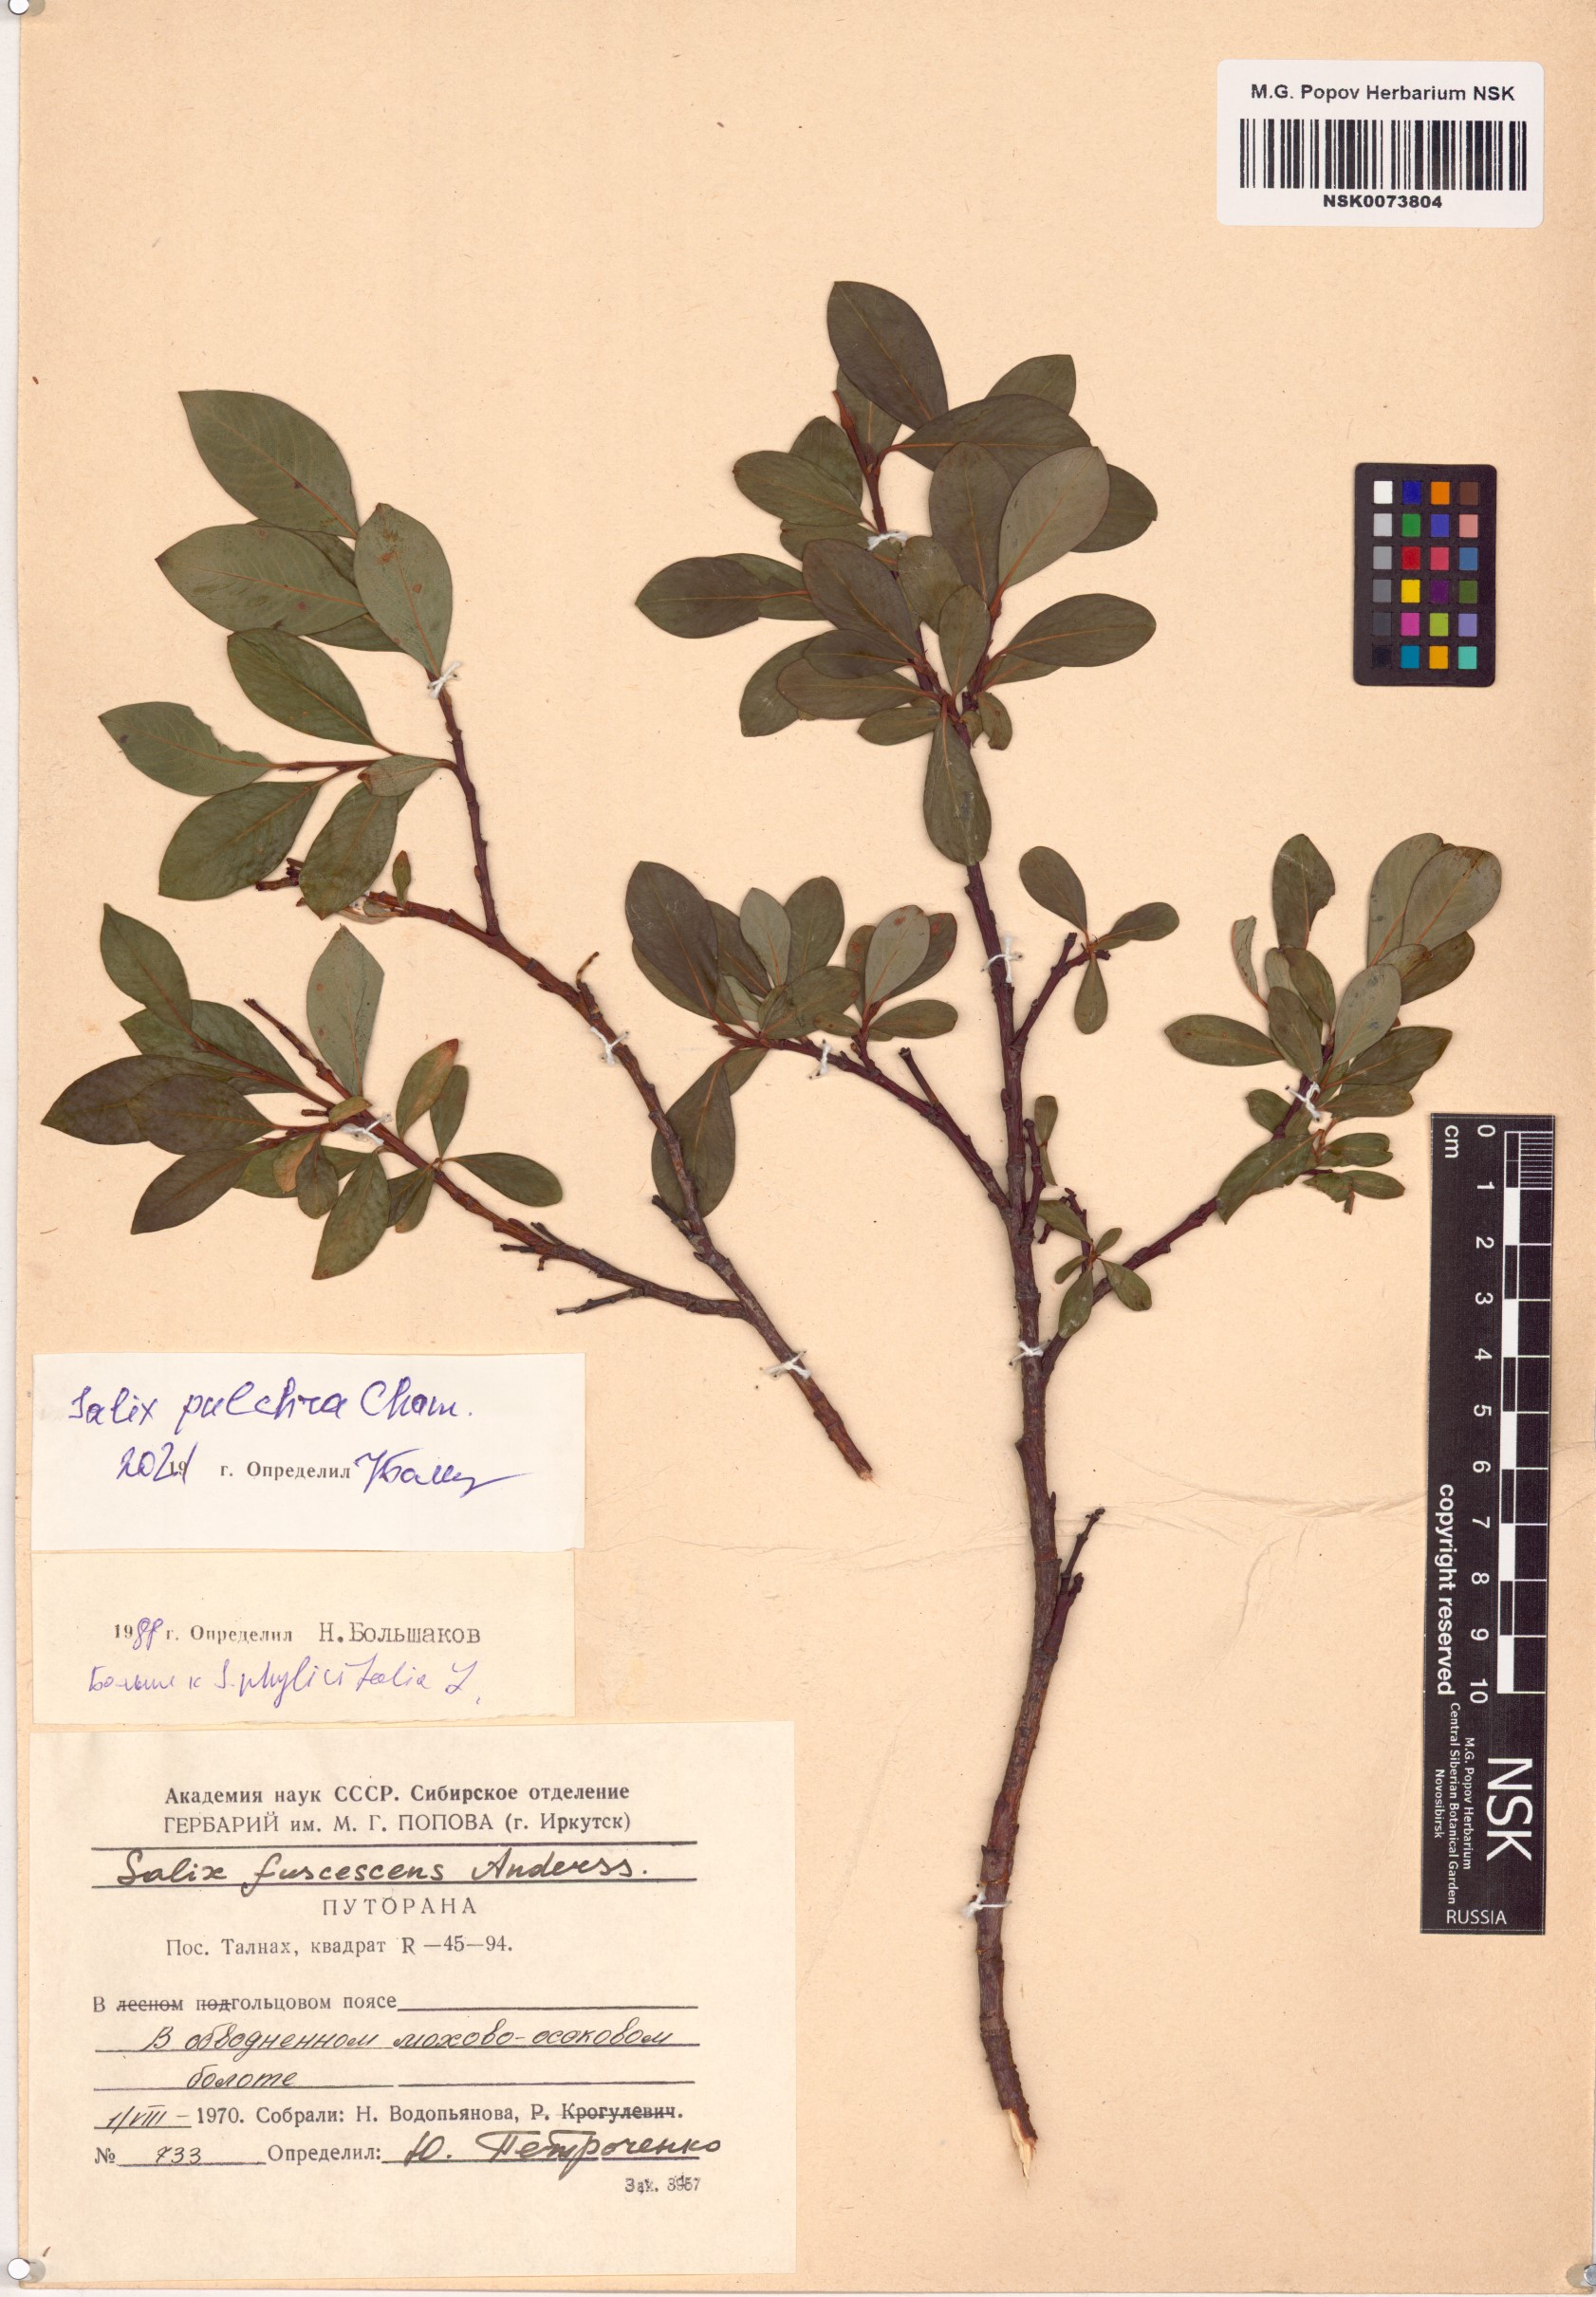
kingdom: Plantae
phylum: Tracheophyta
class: Magnoliopsida
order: Malpighiales
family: Salicaceae
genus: Salix
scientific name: Salix pulchra
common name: Diamond-leaved willow
